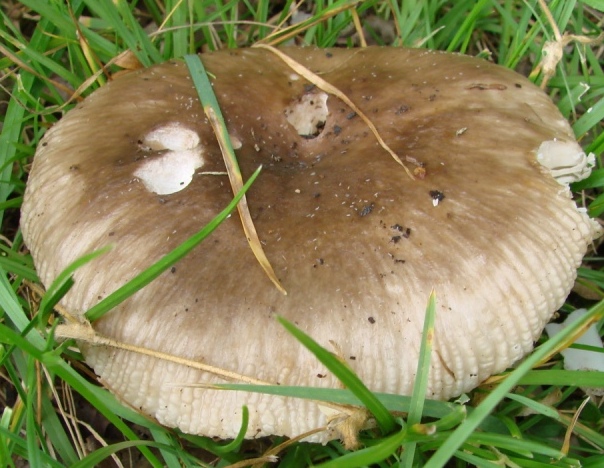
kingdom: Fungi
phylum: Basidiomycota
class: Agaricomycetes
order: Russulales
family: Russulaceae
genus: Russula
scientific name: Russula amoenolens
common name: skarp kam-skørhat
